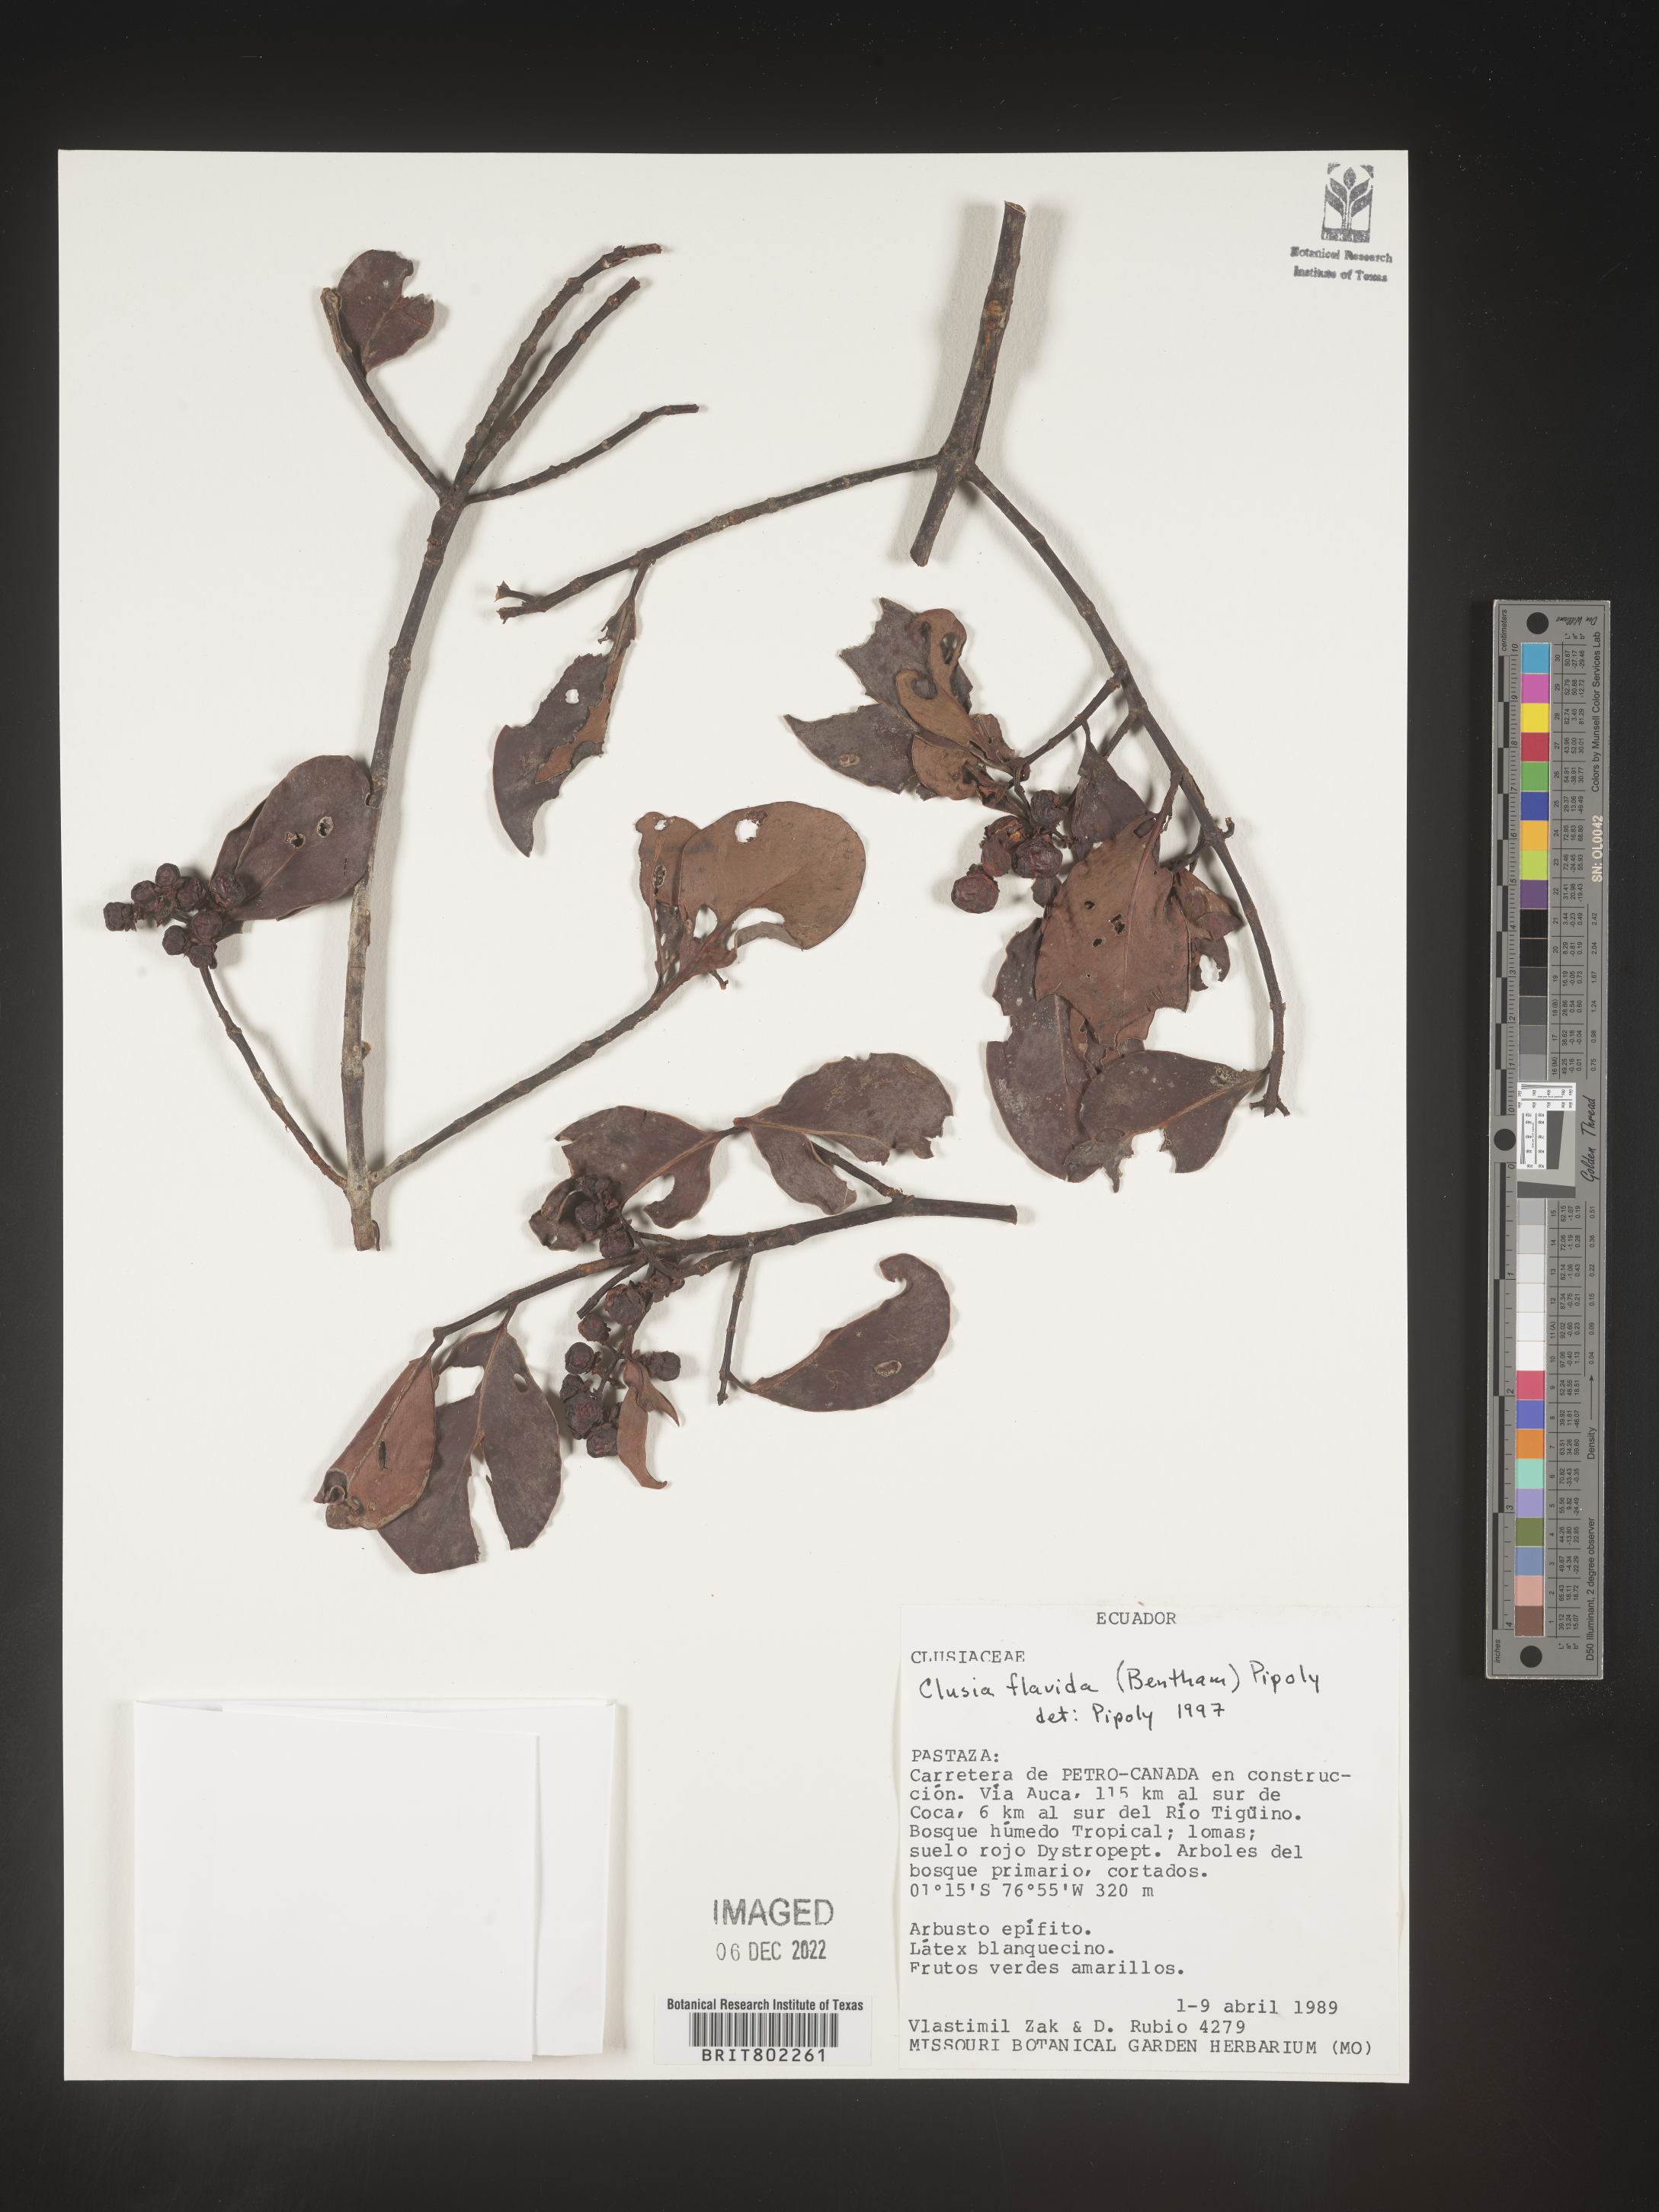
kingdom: Plantae
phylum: Tracheophyta
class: Magnoliopsida
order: Malpighiales
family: Clusiaceae
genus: Clusia
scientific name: Clusia flavida
